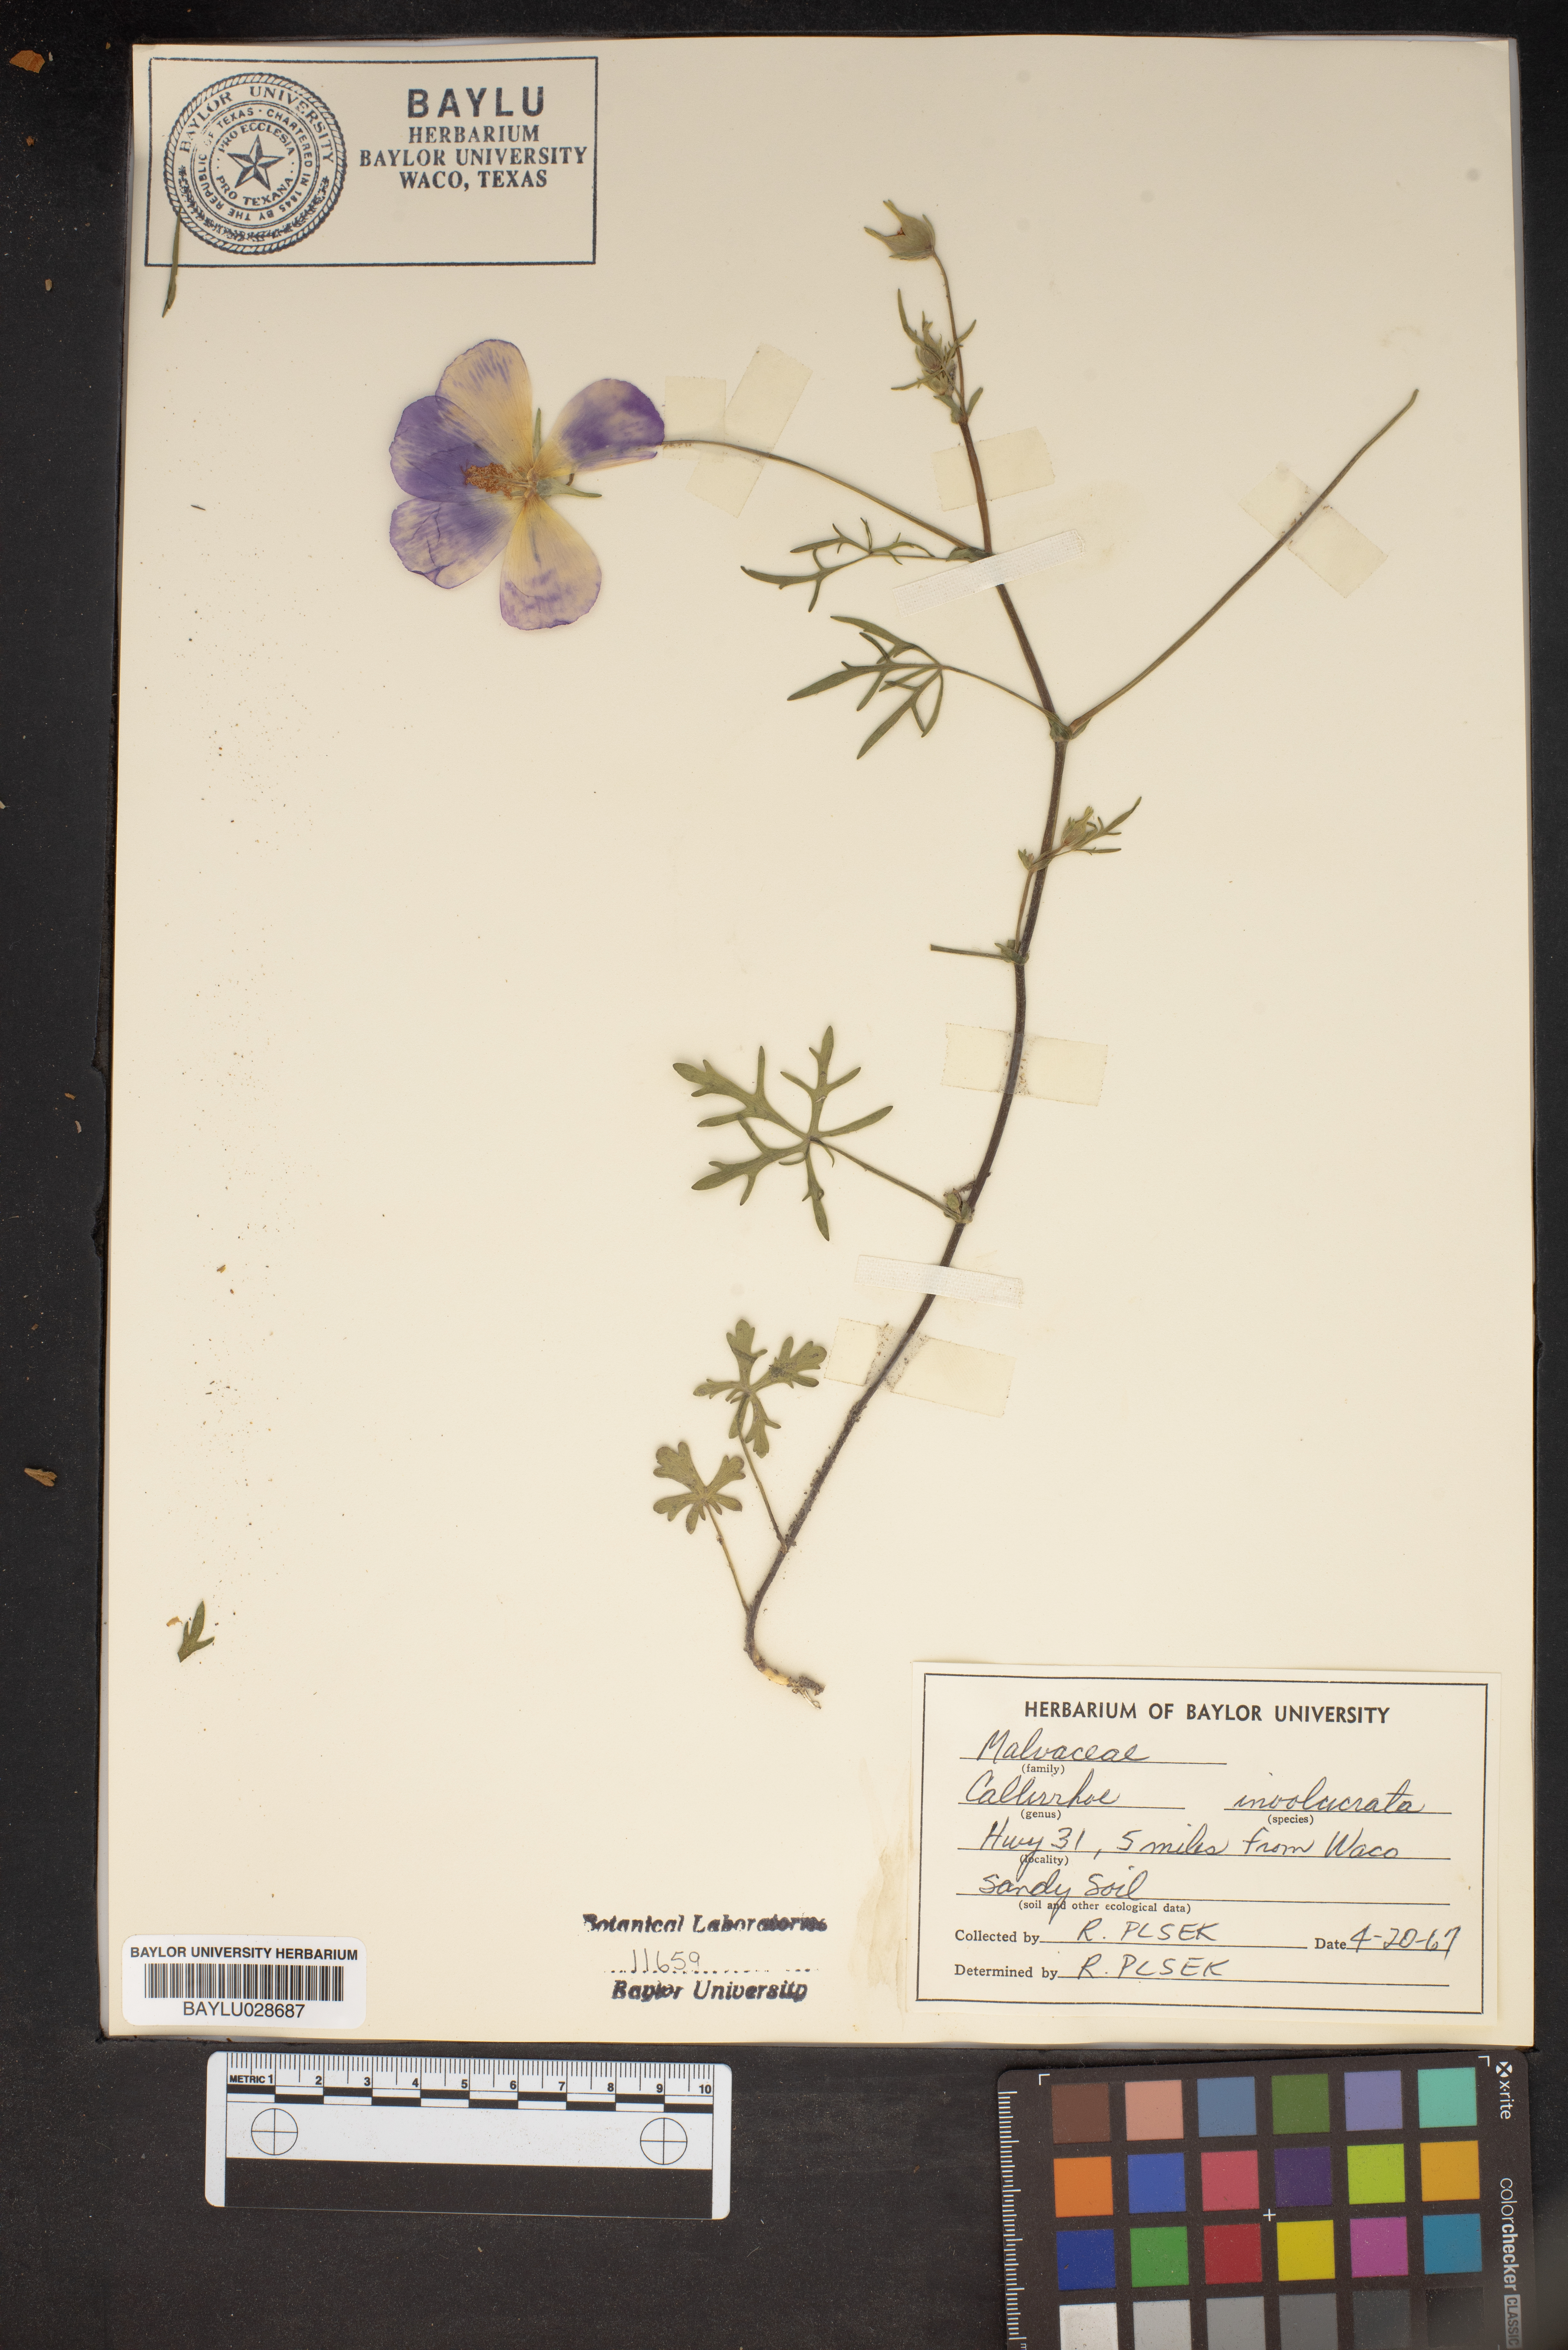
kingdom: Plantae
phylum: Tracheophyta
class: Magnoliopsida
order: Malvales
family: Malvaceae
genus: Callirhoe
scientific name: Callirhoe involucrata
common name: Purple poppy-mallow
